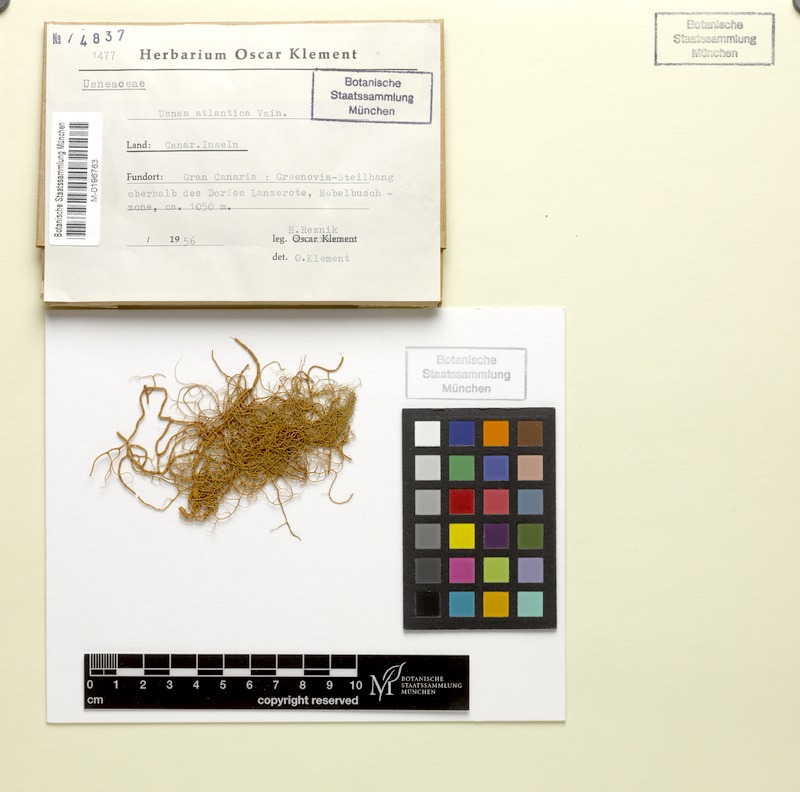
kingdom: Fungi
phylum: Ascomycota
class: Lecanoromycetes
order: Lecanorales
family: Parmeliaceae
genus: Usnea
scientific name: Usnea atlantica
